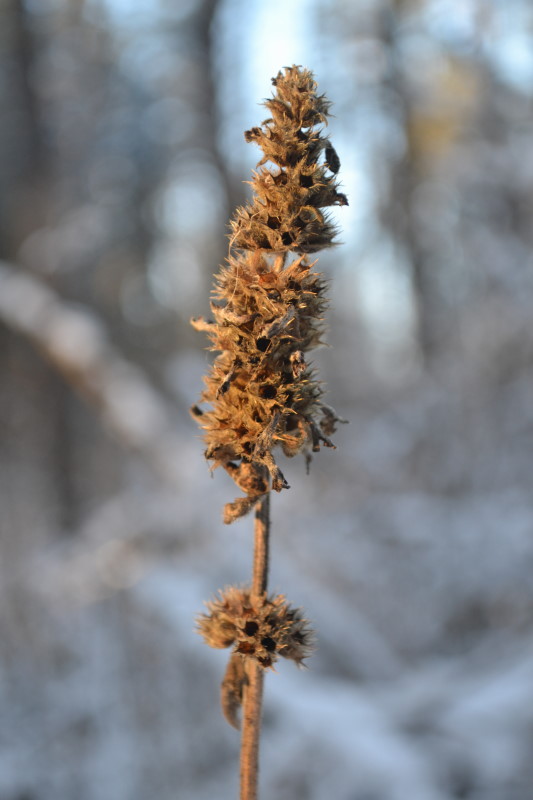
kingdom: Plantae
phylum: Tracheophyta
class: Magnoliopsida
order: Lamiales
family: Lamiaceae
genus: Betonica
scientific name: Betonica officinalis
